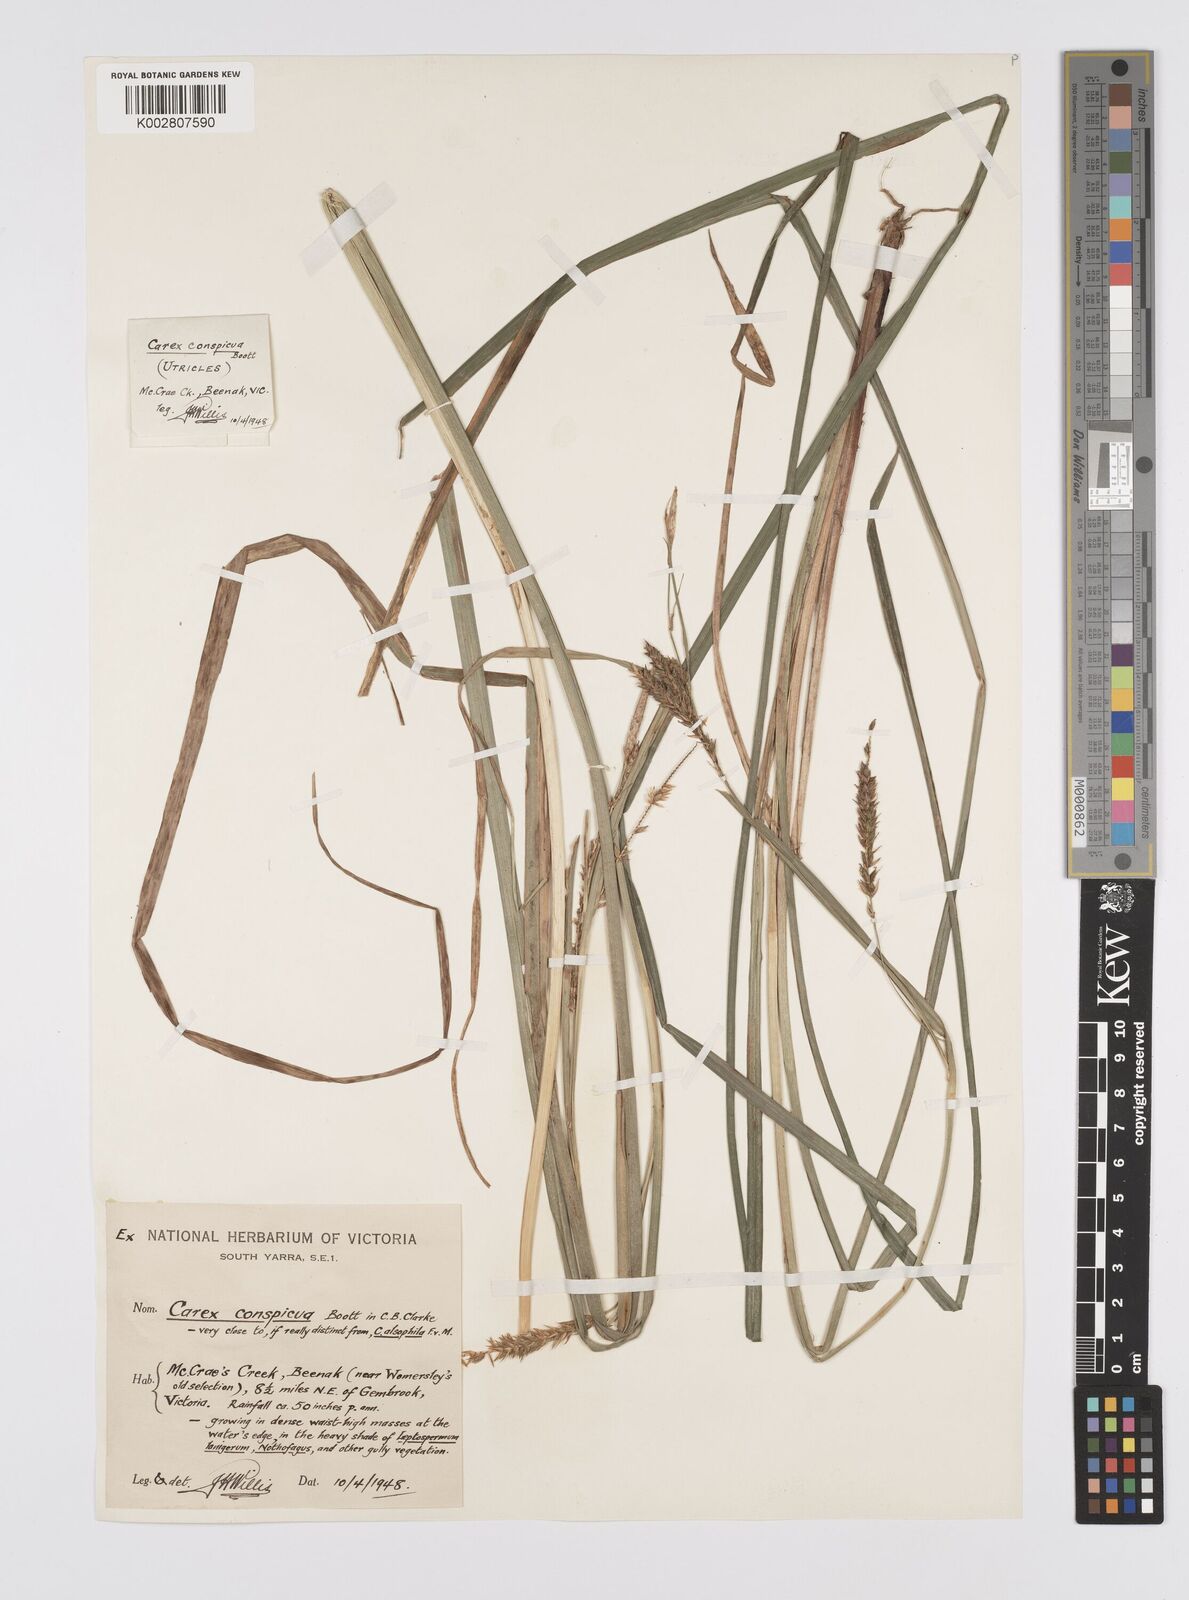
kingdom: Plantae
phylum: Tracheophyta
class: Liliopsida
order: Poales
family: Cyperaceae
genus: Carex
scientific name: Carex alsophila
